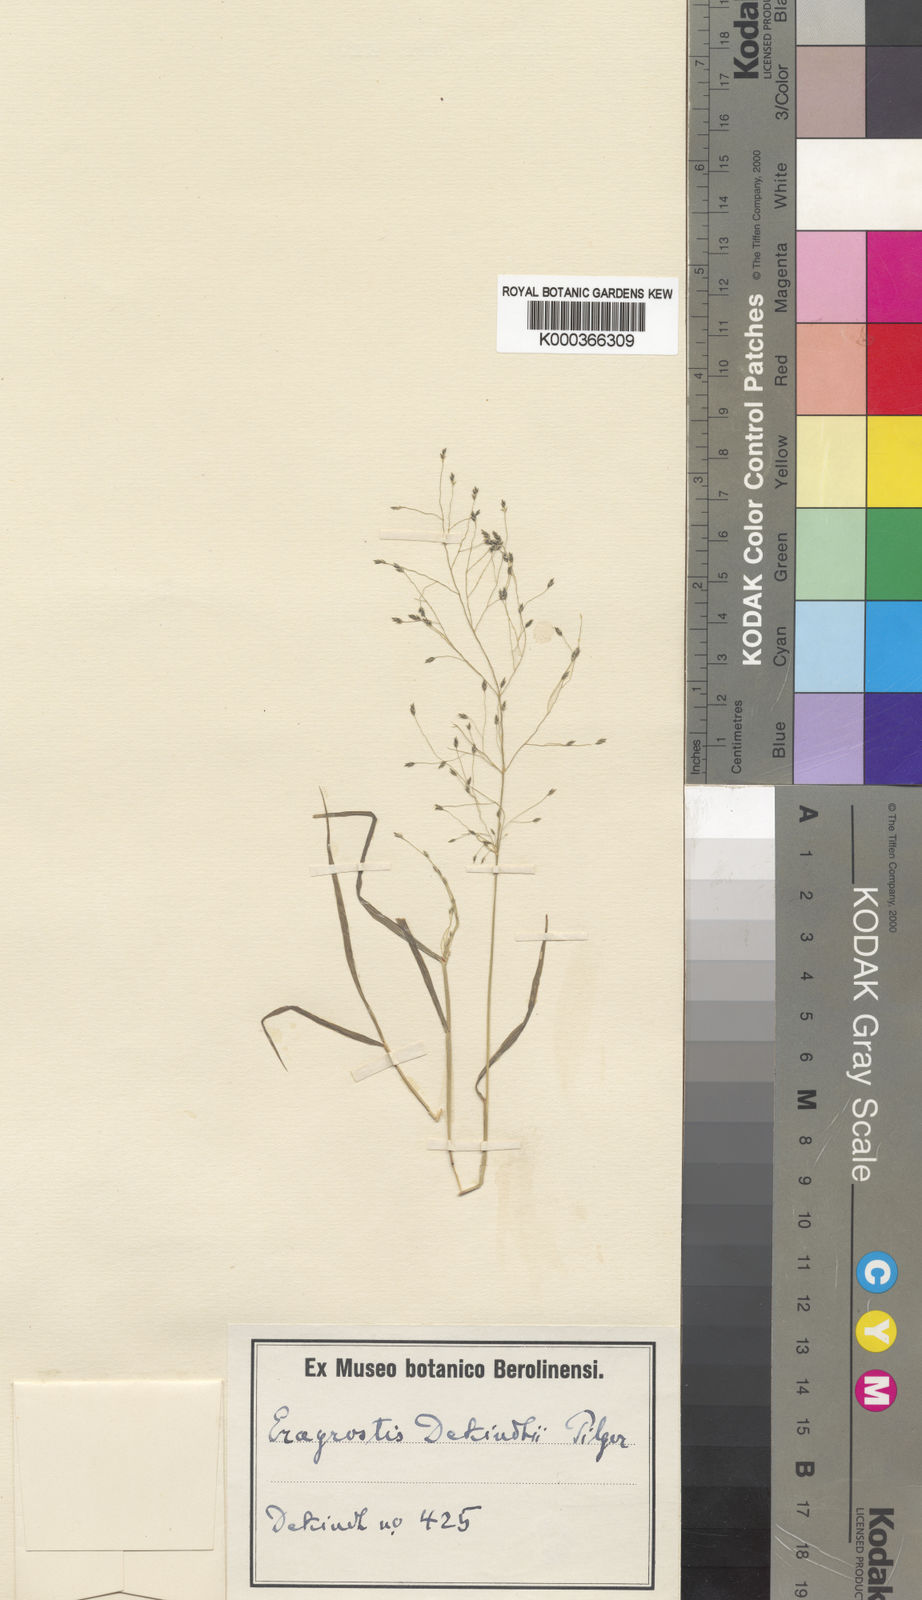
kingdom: Plantae
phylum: Tracheophyta
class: Liliopsida
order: Poales
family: Poaceae
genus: Eragrostis
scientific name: Eragrostis macilenta
